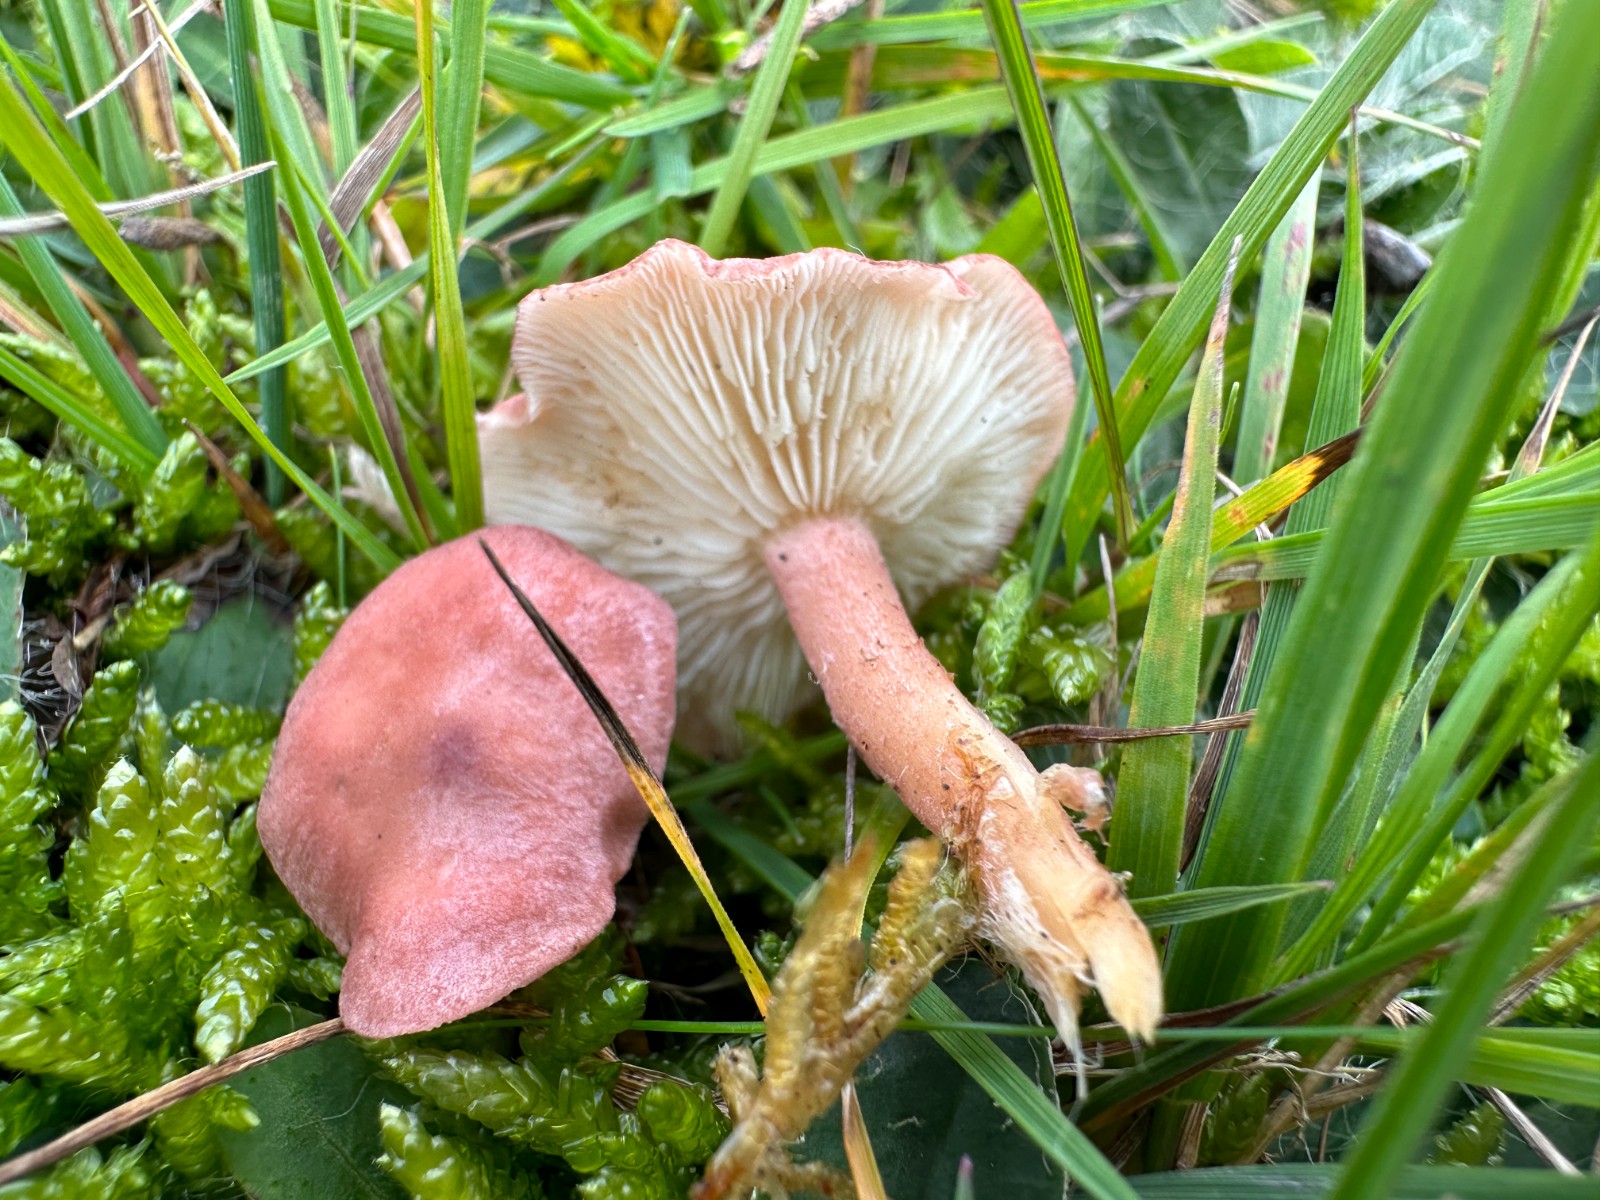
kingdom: Fungi
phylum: Basidiomycota
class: Agaricomycetes
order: Agaricales
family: Lyophyllaceae
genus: Calocybe
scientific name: Calocybe carnea
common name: rosa fagerhat
